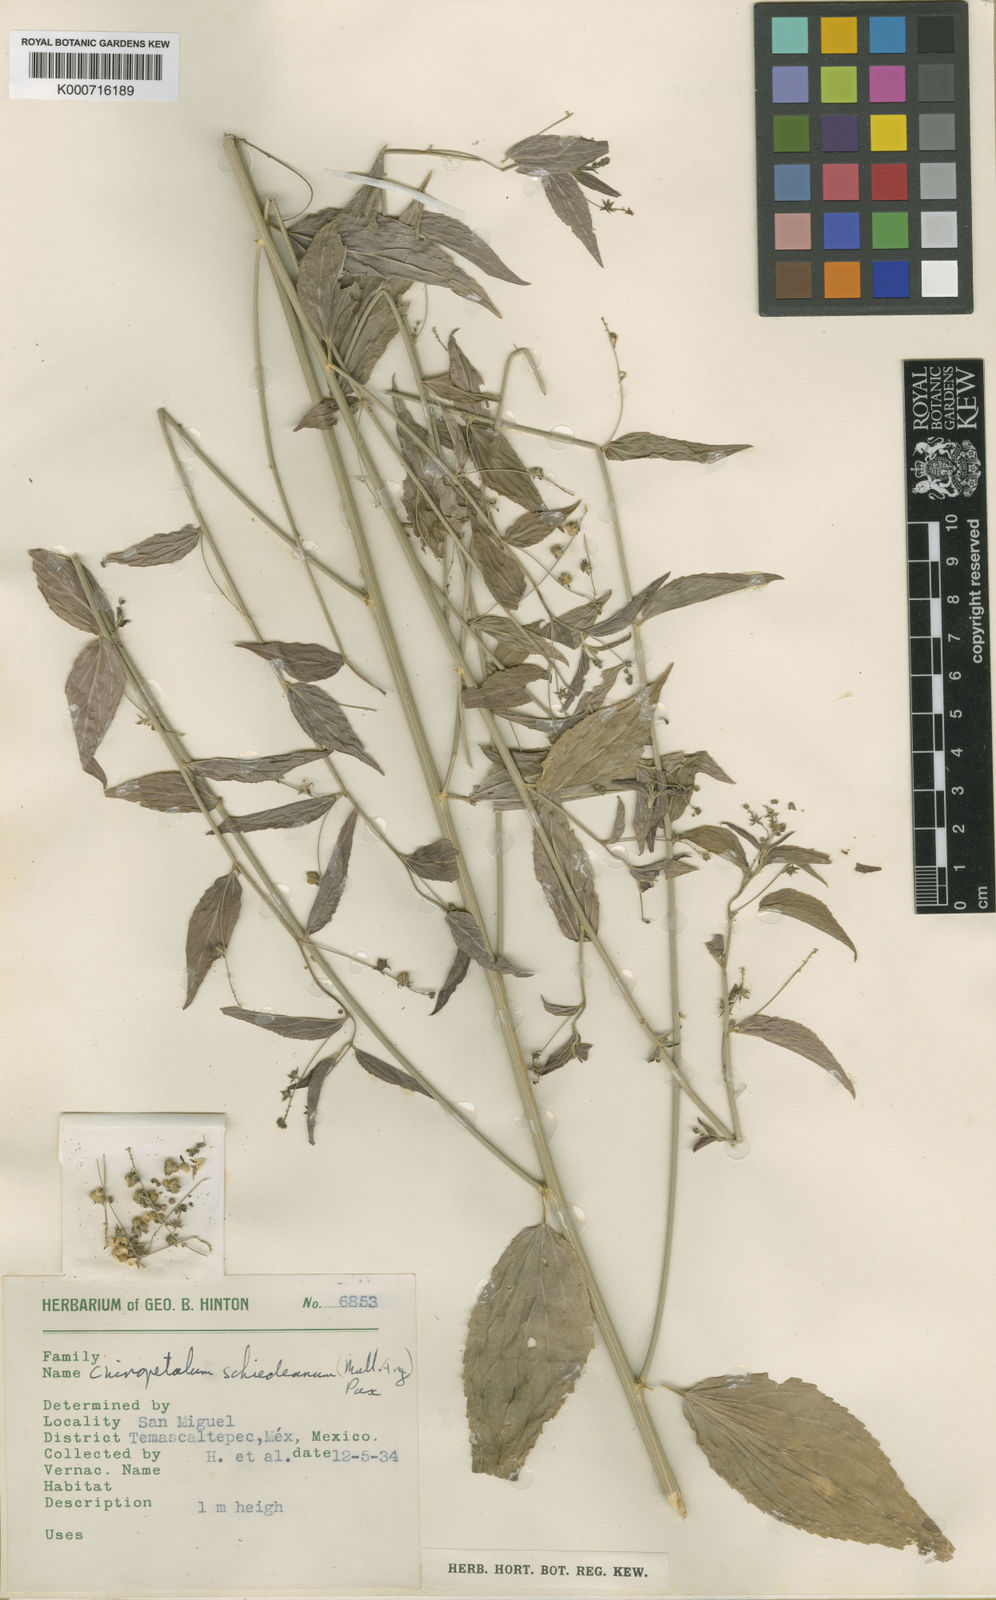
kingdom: Plantae
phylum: Tracheophyta
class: Magnoliopsida
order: Malpighiales
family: Euphorbiaceae
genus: Chiropetalum
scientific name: Chiropetalum
